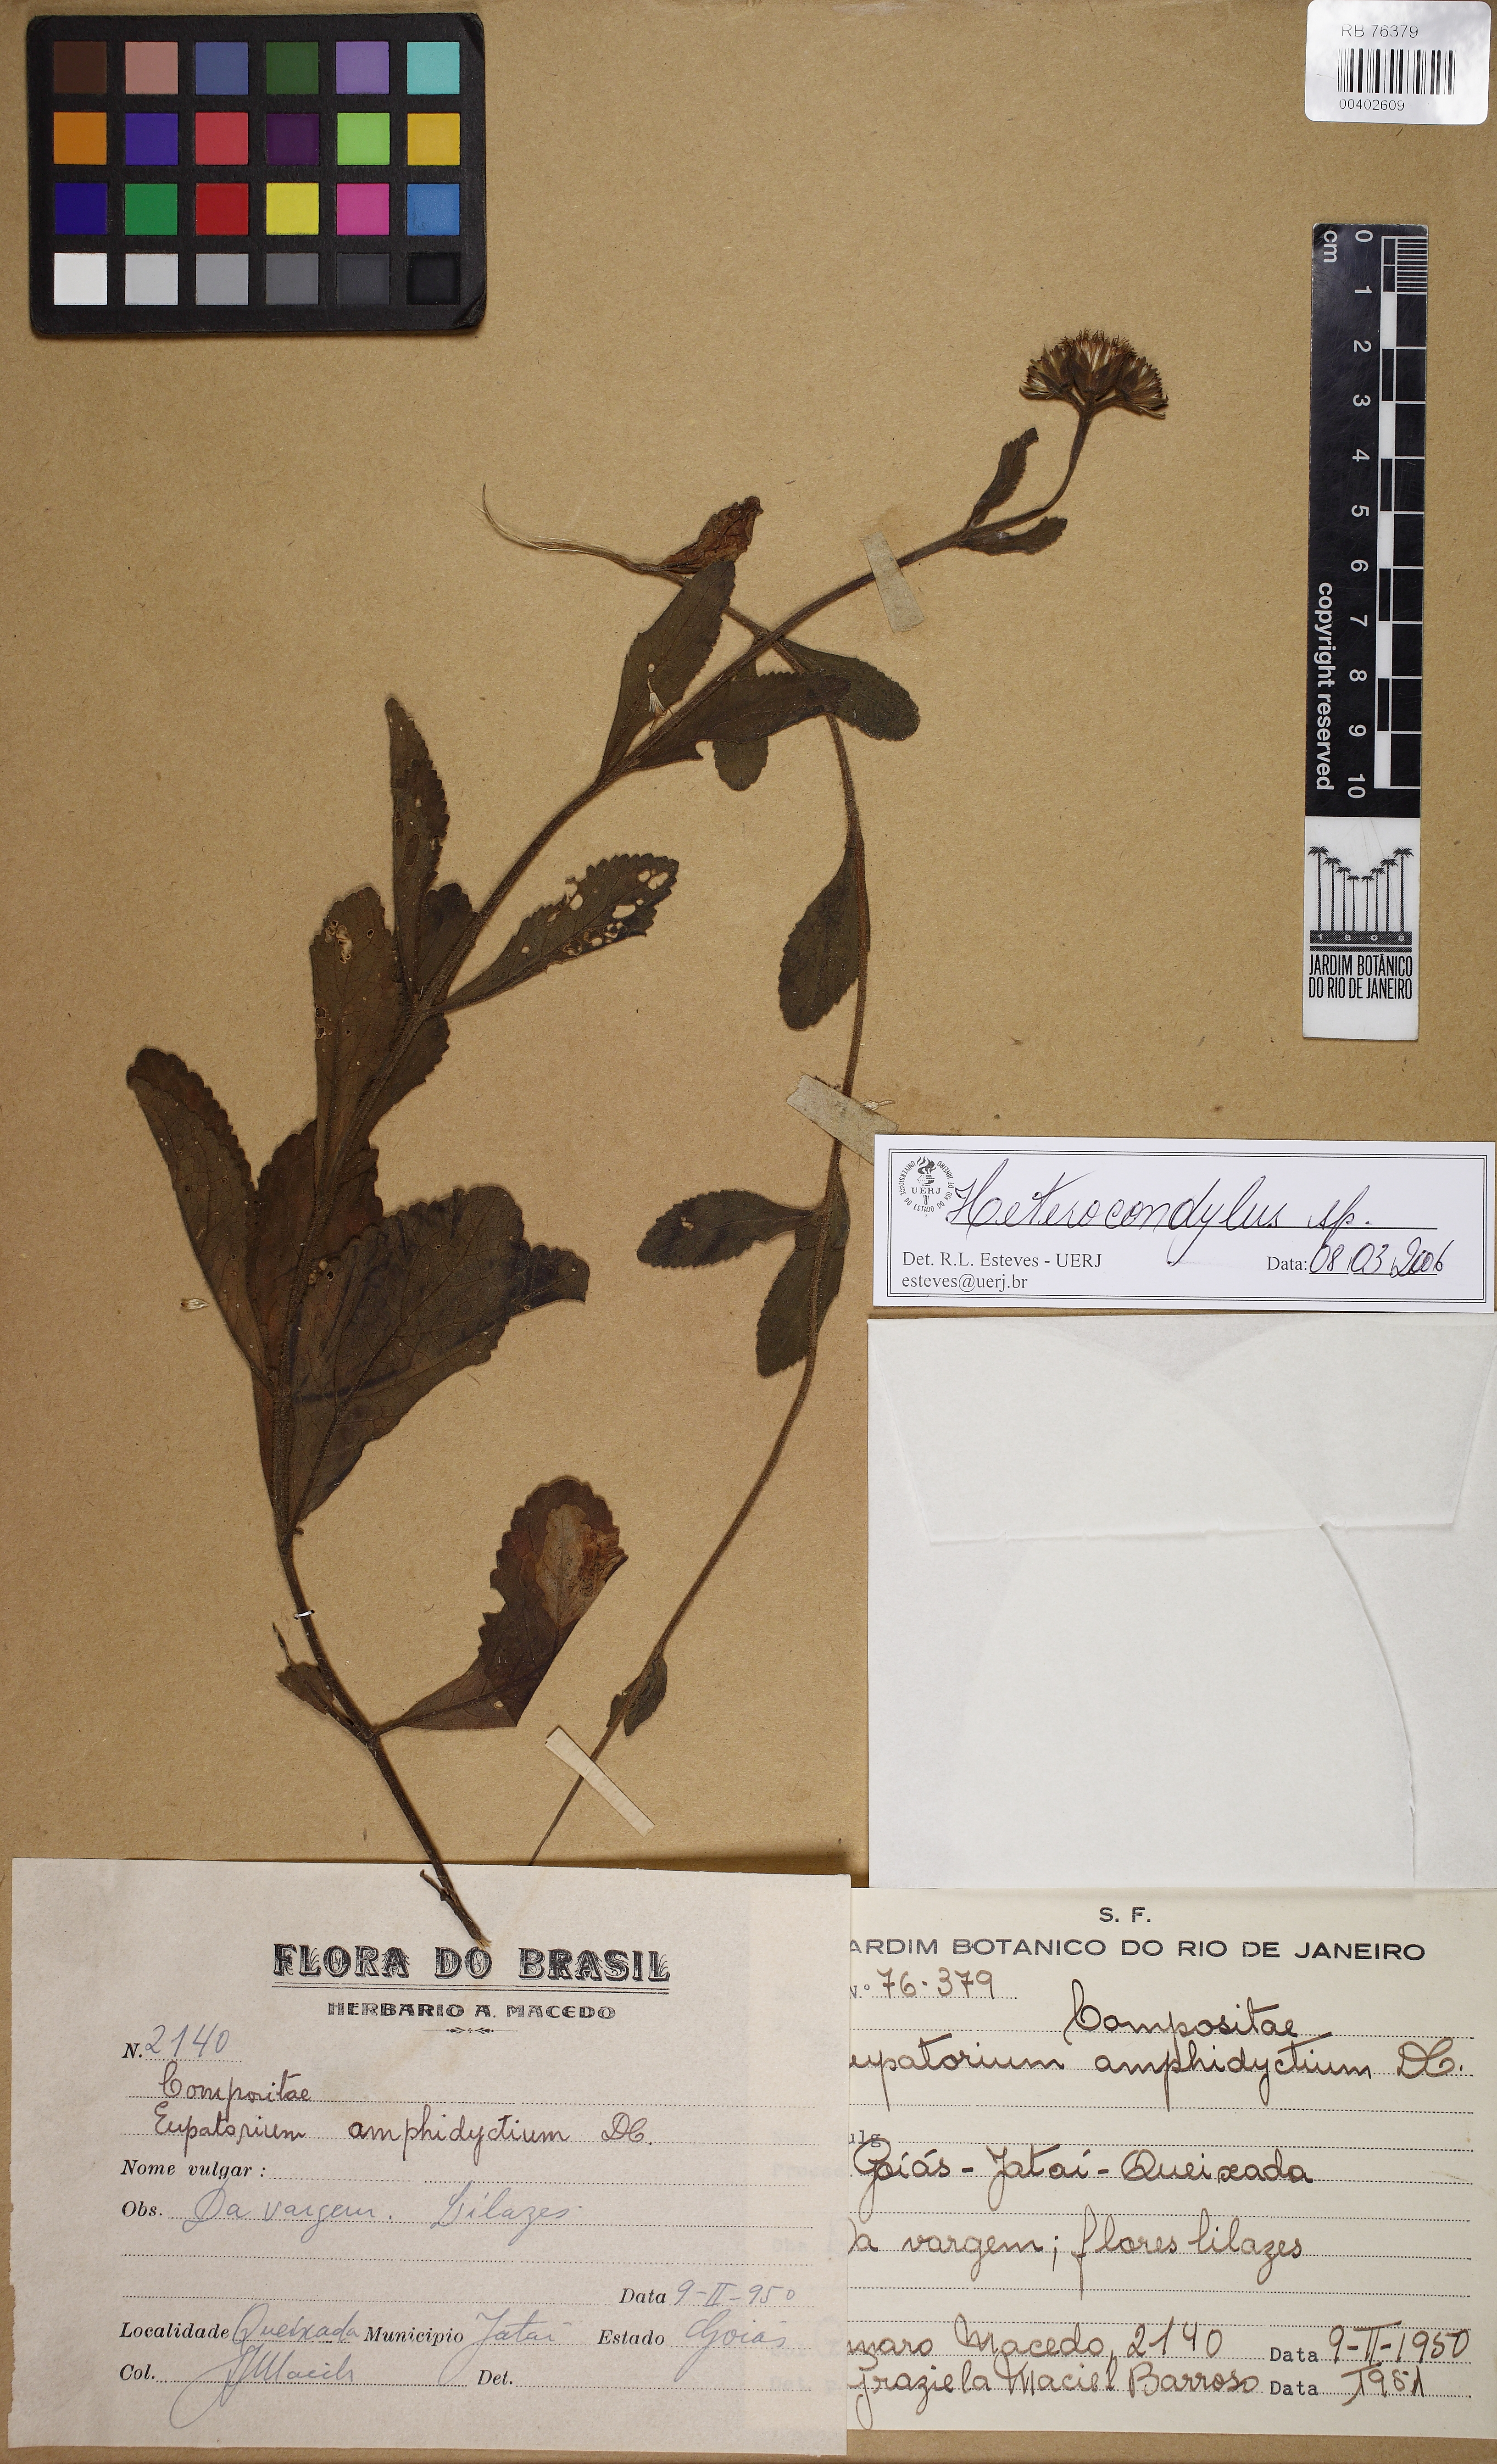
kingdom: Plantae
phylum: Tracheophyta
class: Magnoliopsida
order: Asterales
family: Asteraceae
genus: Heterocondylus
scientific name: Heterocondylus
